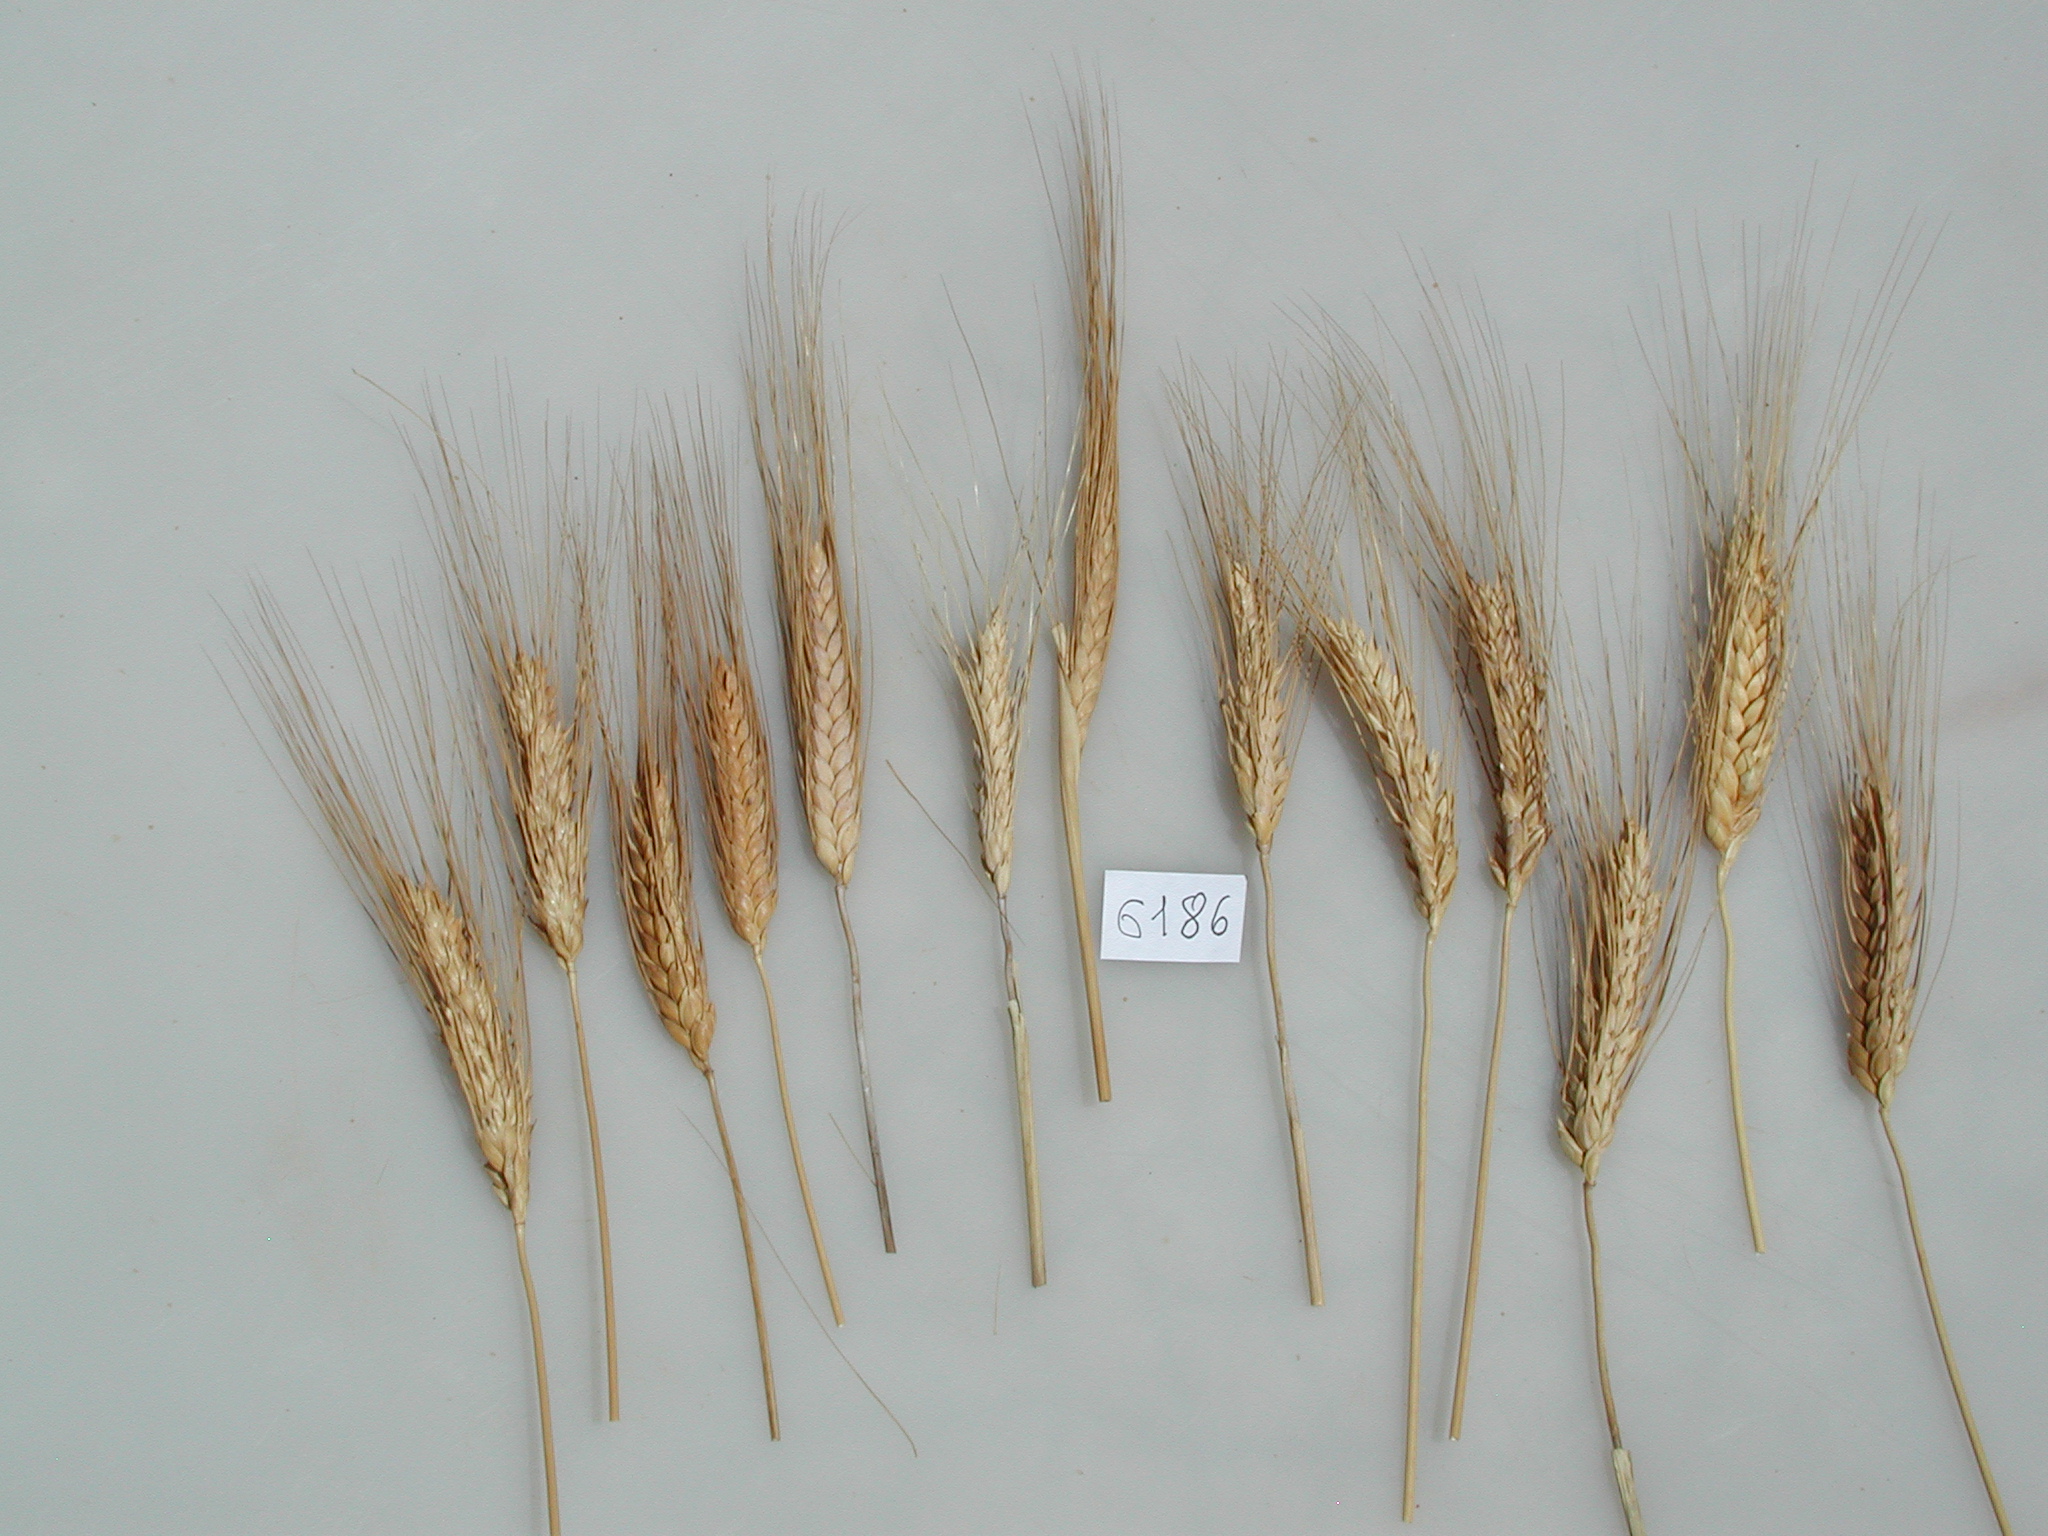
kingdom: Plantae
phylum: Tracheophyta
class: Liliopsida
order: Poales
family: Poaceae
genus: Triticum
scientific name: Triticum turgidum
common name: Wheat
